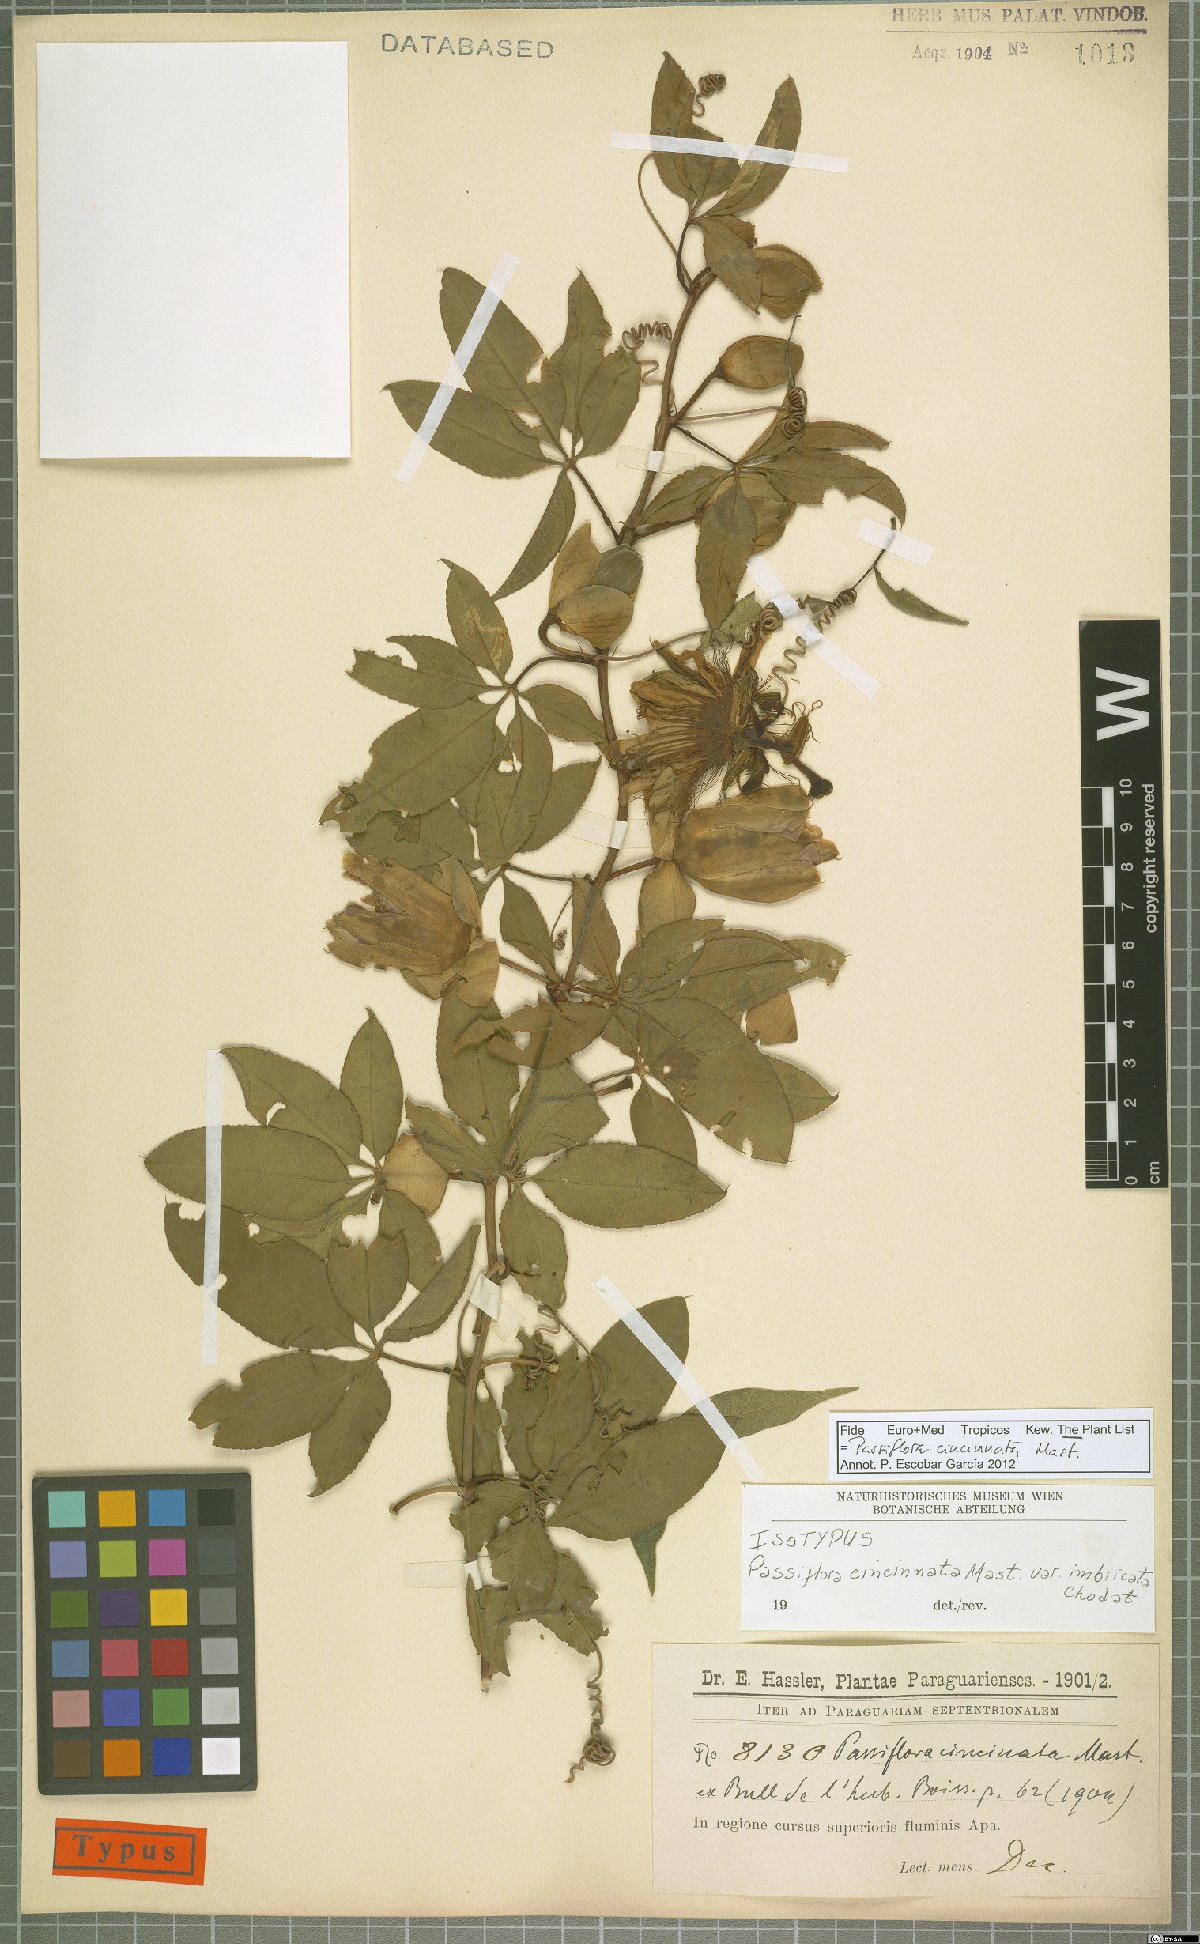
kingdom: Plantae
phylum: Tracheophyta
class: Magnoliopsida
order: Malpighiales
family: Passifloraceae
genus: Passiflora
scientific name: Passiflora cincinnata
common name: Crato passionvine
